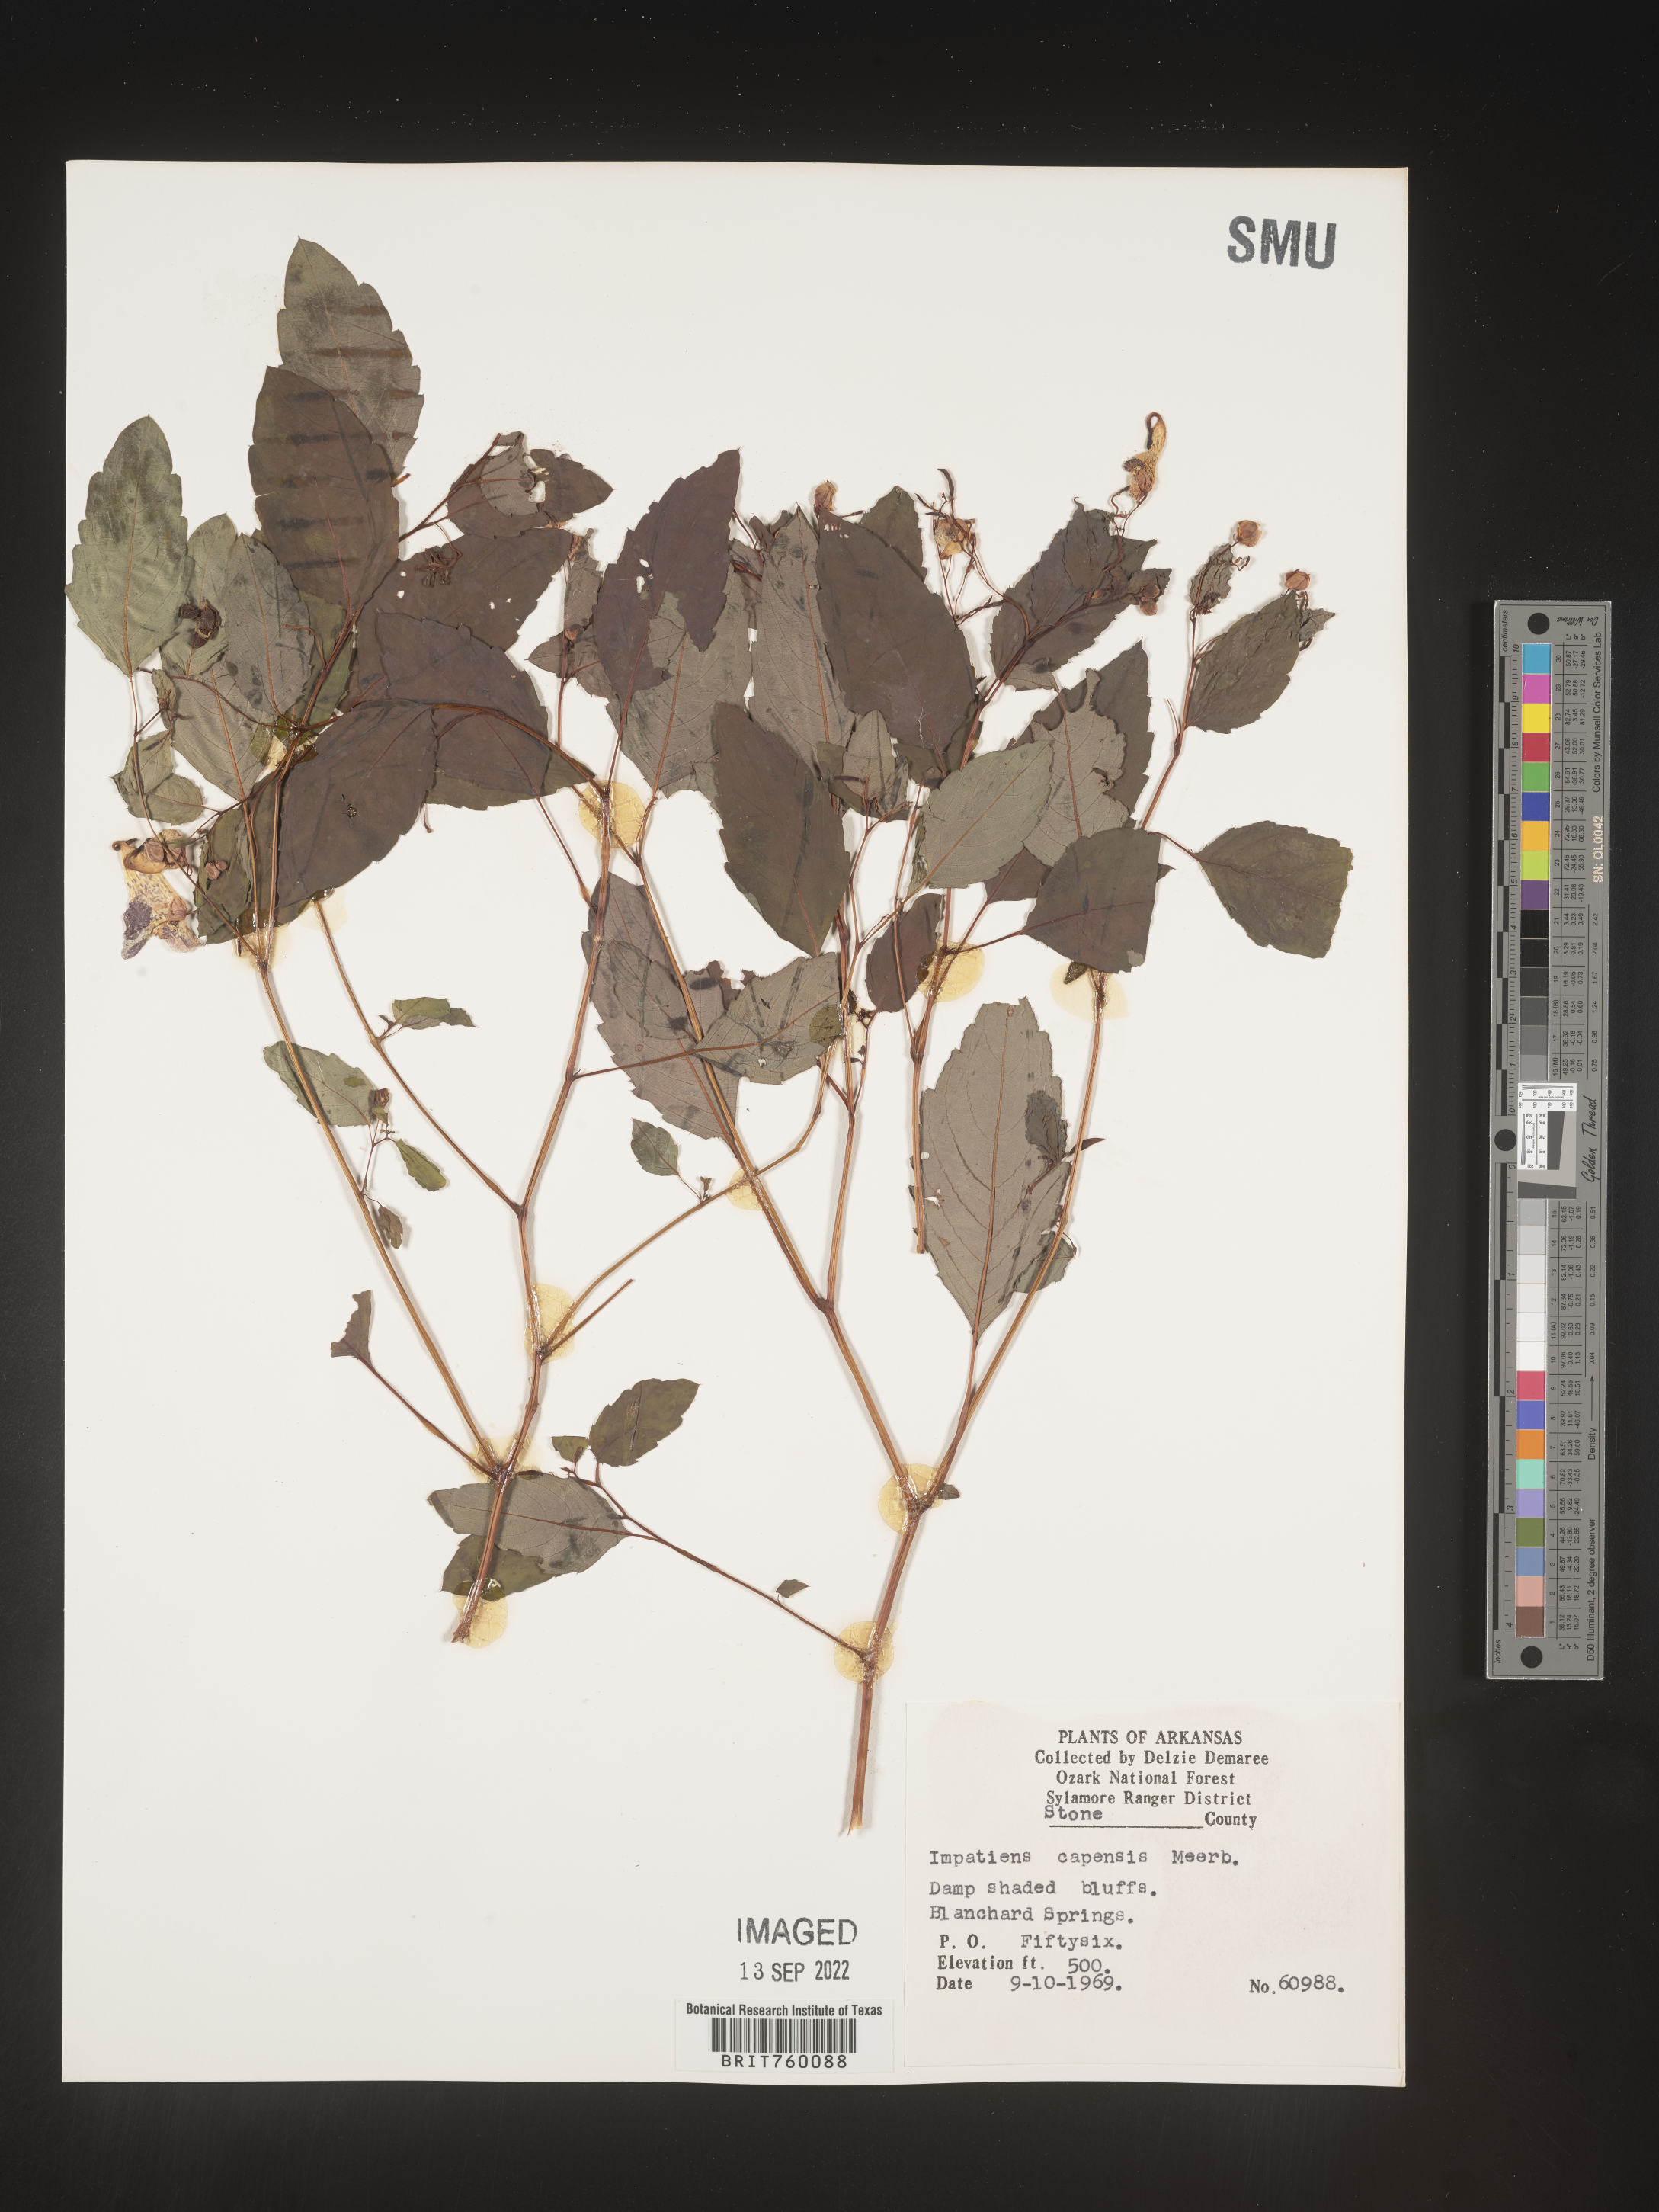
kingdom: Plantae
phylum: Tracheophyta
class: Magnoliopsida
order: Ericales
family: Balsaminaceae
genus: Impatiens
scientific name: Impatiens capensis
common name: Orange balsam
